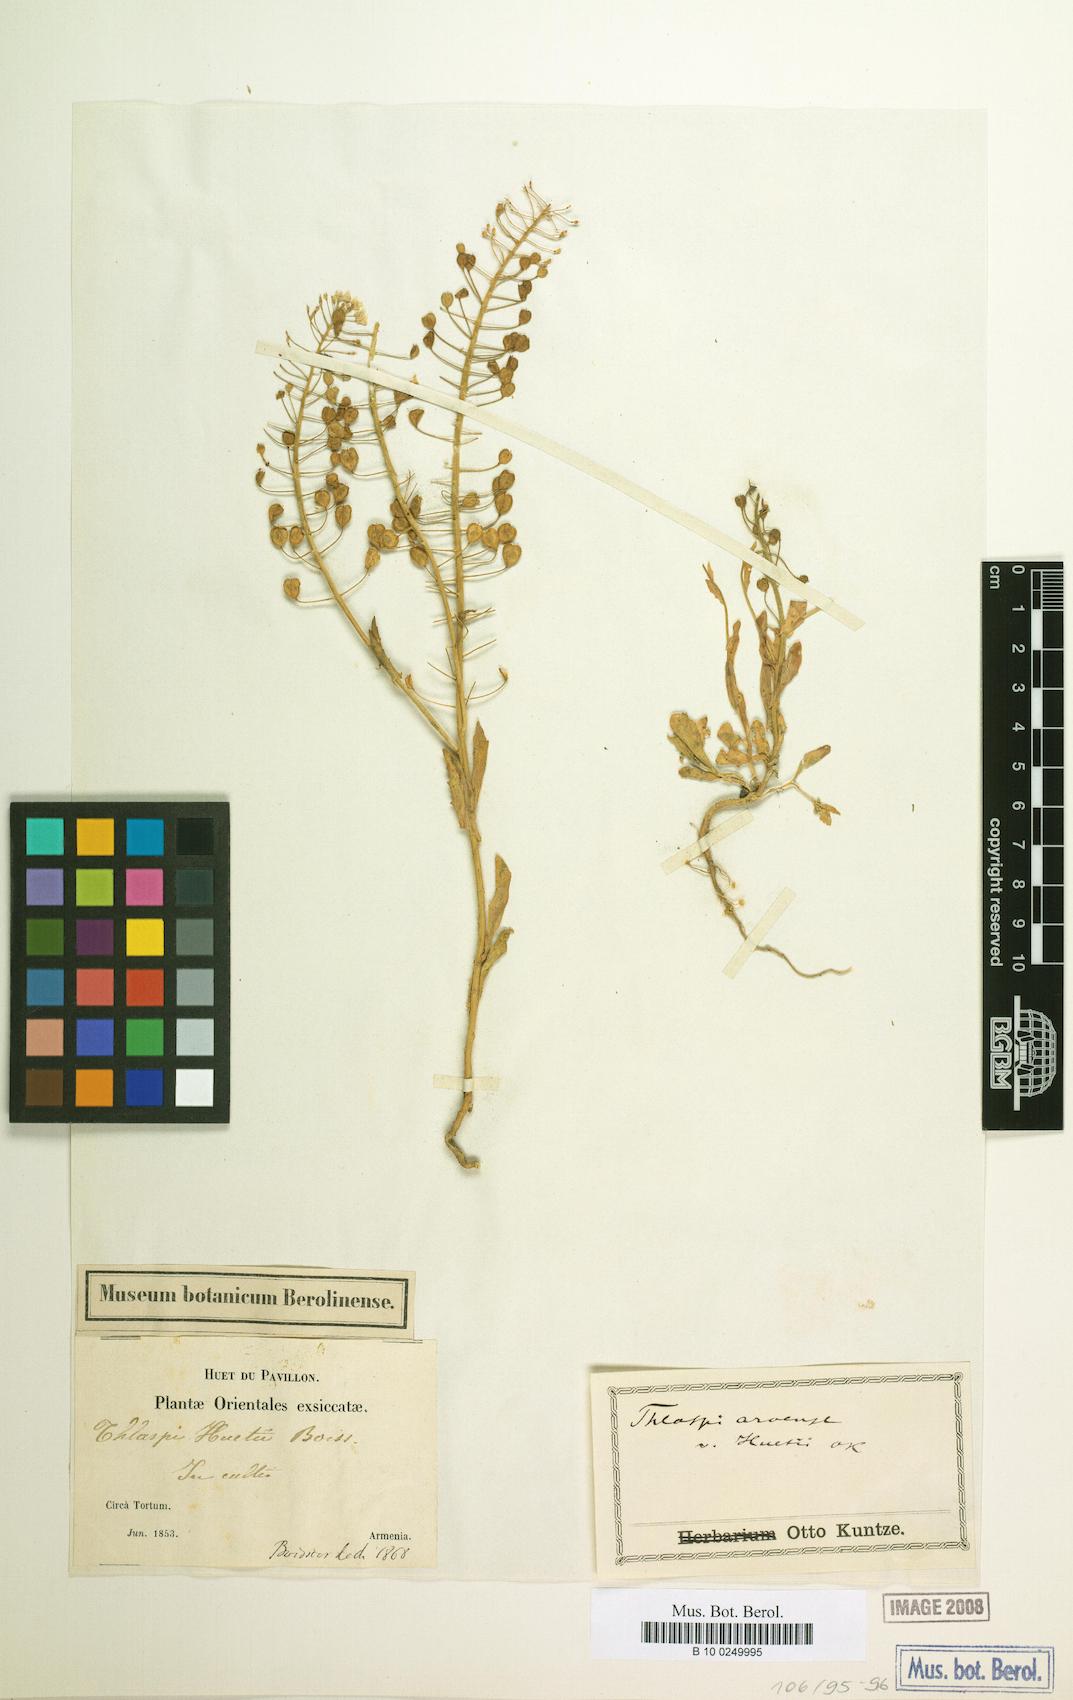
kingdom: Plantae
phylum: Tracheophyta
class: Magnoliopsida
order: Brassicales
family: Brassicaceae
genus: Thlaspi
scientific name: Thlaspi huetii
